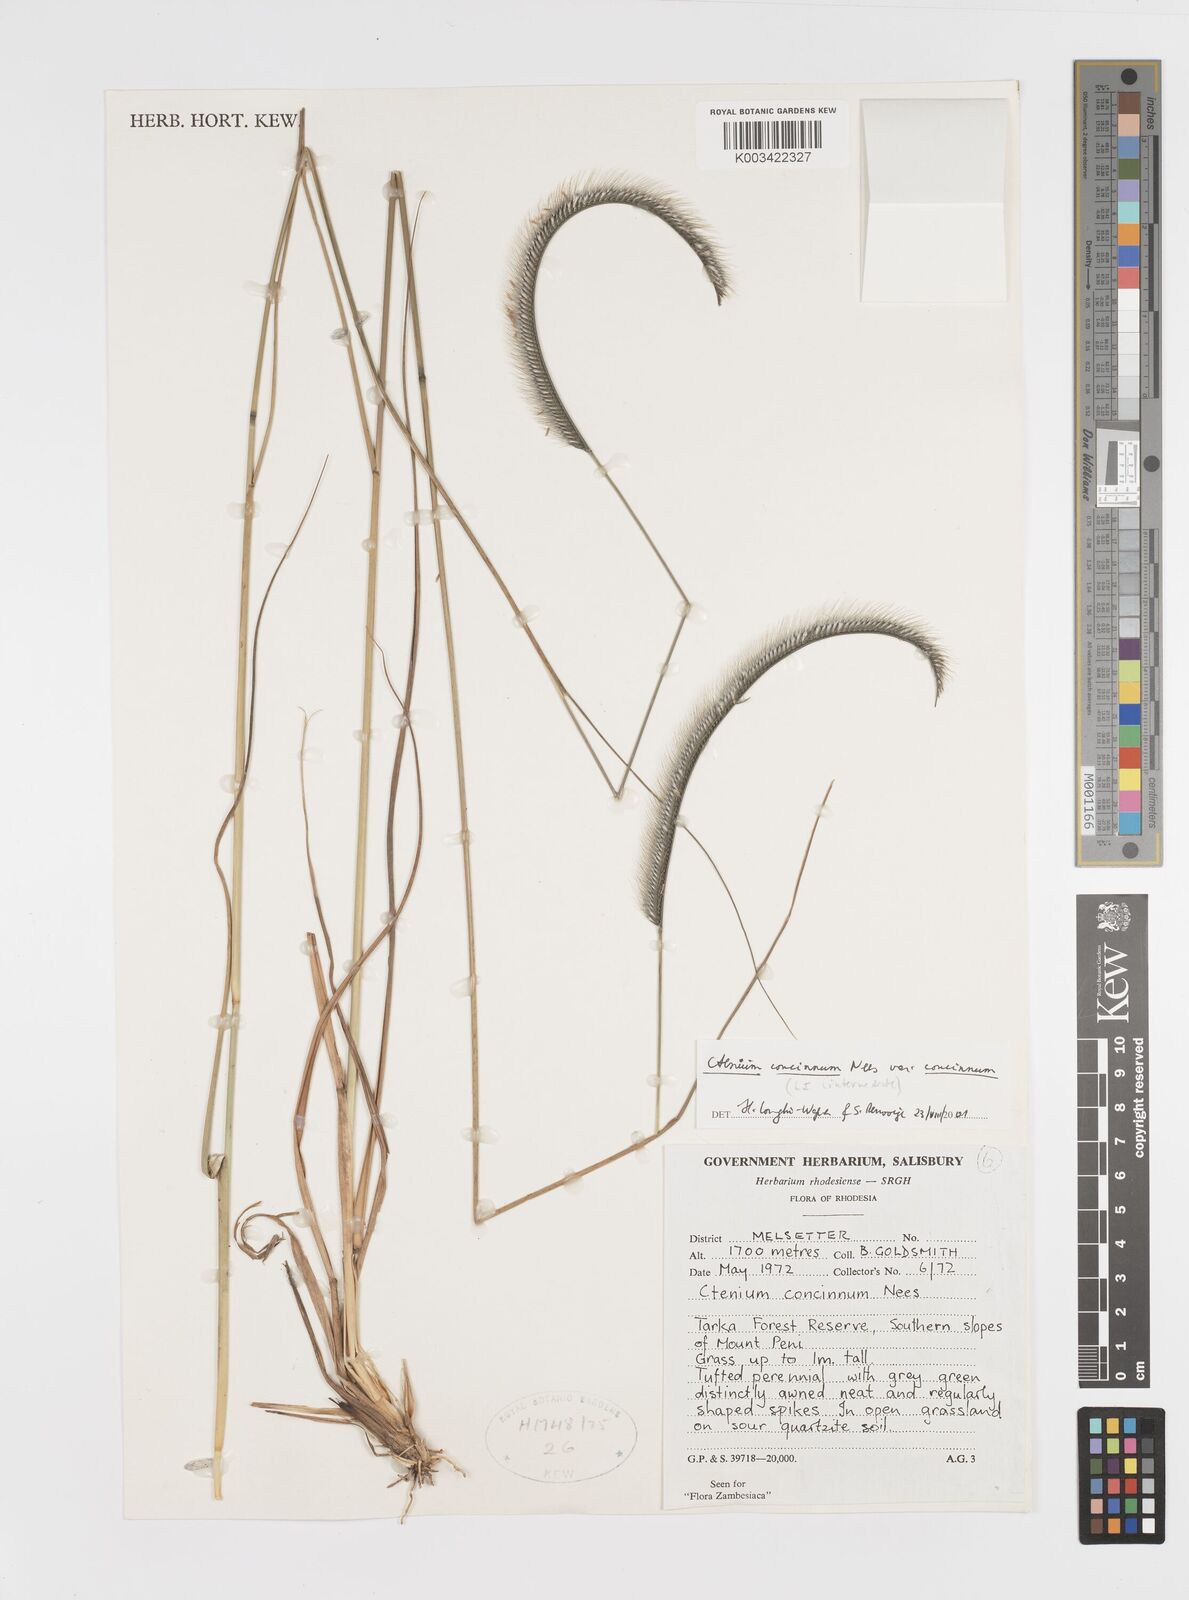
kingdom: Plantae
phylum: Tracheophyta
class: Liliopsida
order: Poales
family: Poaceae
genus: Ctenium
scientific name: Ctenium concinnum
